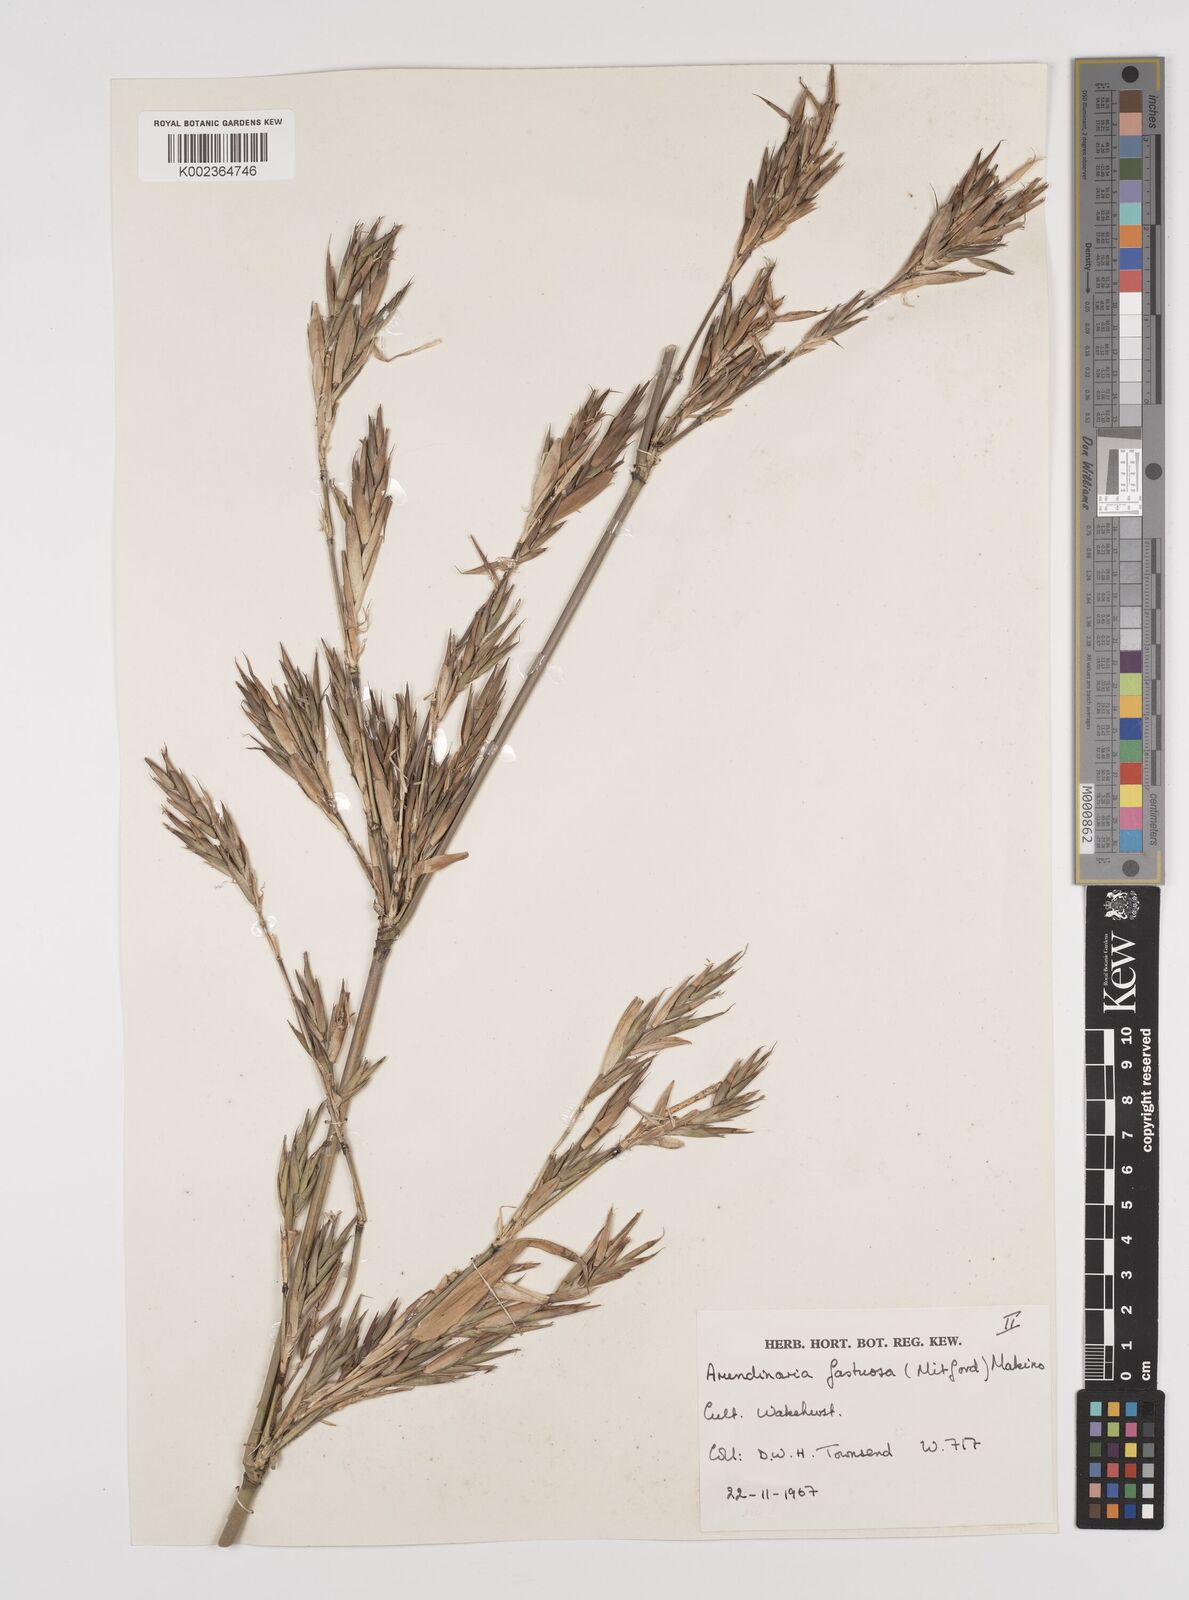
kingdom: Plantae
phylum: Tracheophyta
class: Liliopsida
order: Poales
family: Poaceae
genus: Semiarundinaria
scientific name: Semiarundinaria fastuosa
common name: Narihira bamboo
